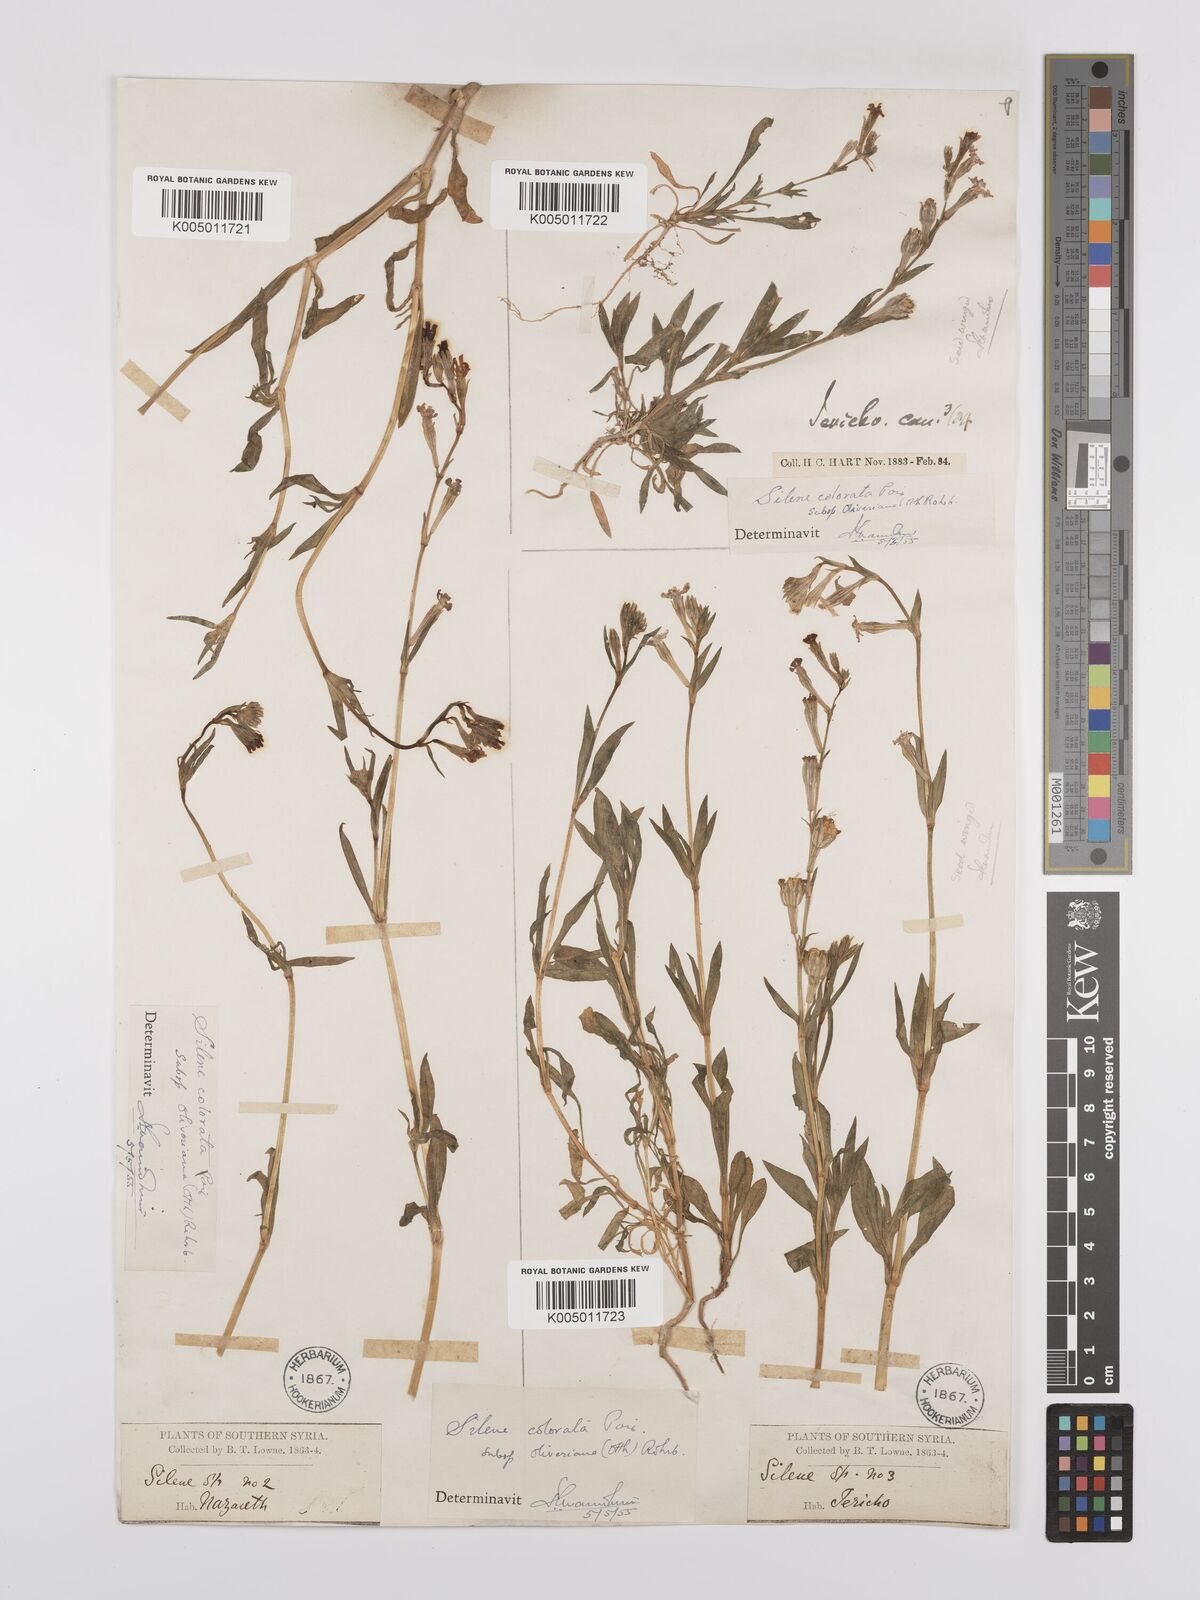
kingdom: Plantae
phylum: Tracheophyta
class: Magnoliopsida
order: Caryophyllales
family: Caryophyllaceae
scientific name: Caryophyllaceae
